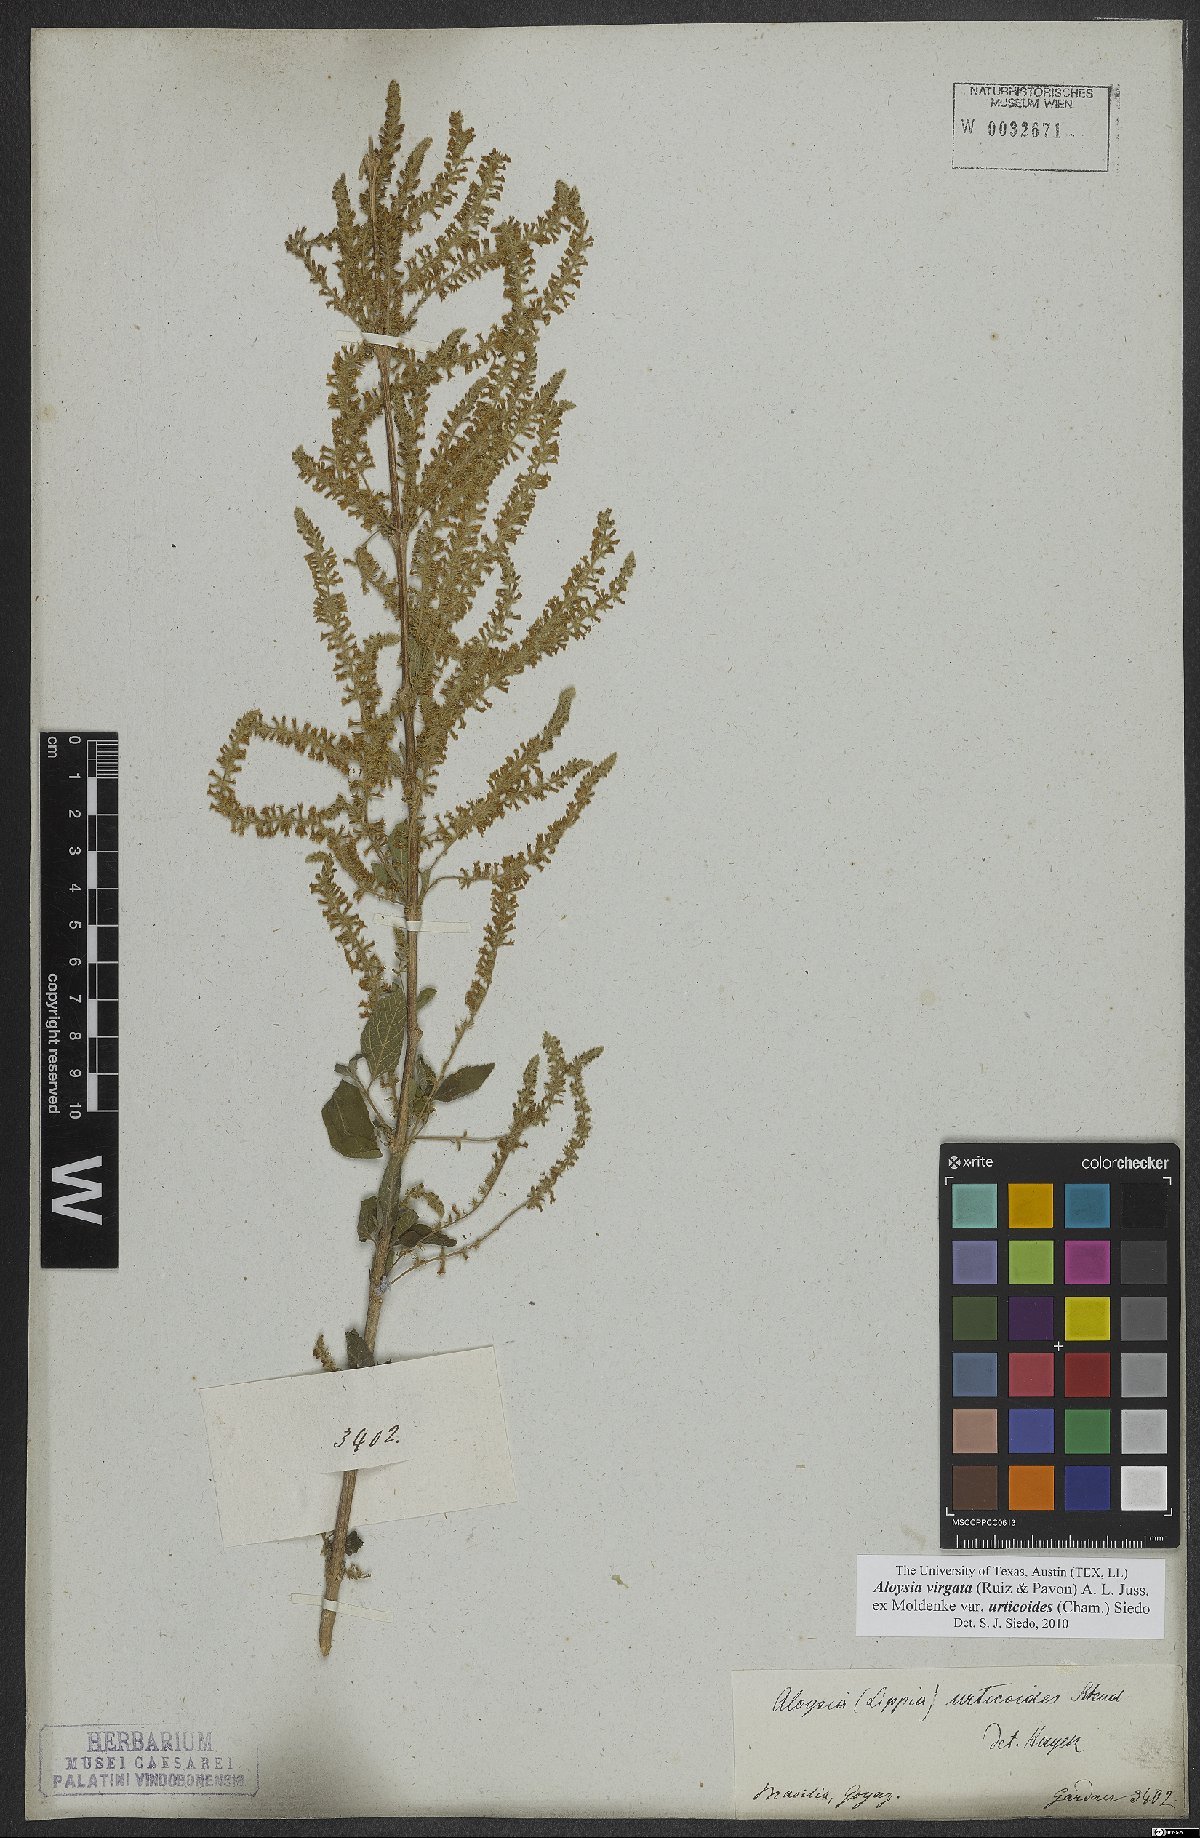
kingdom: Plantae
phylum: Tracheophyta
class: Magnoliopsida
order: Lamiales
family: Verbenaceae
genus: Aloysia
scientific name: Aloysia virgata
